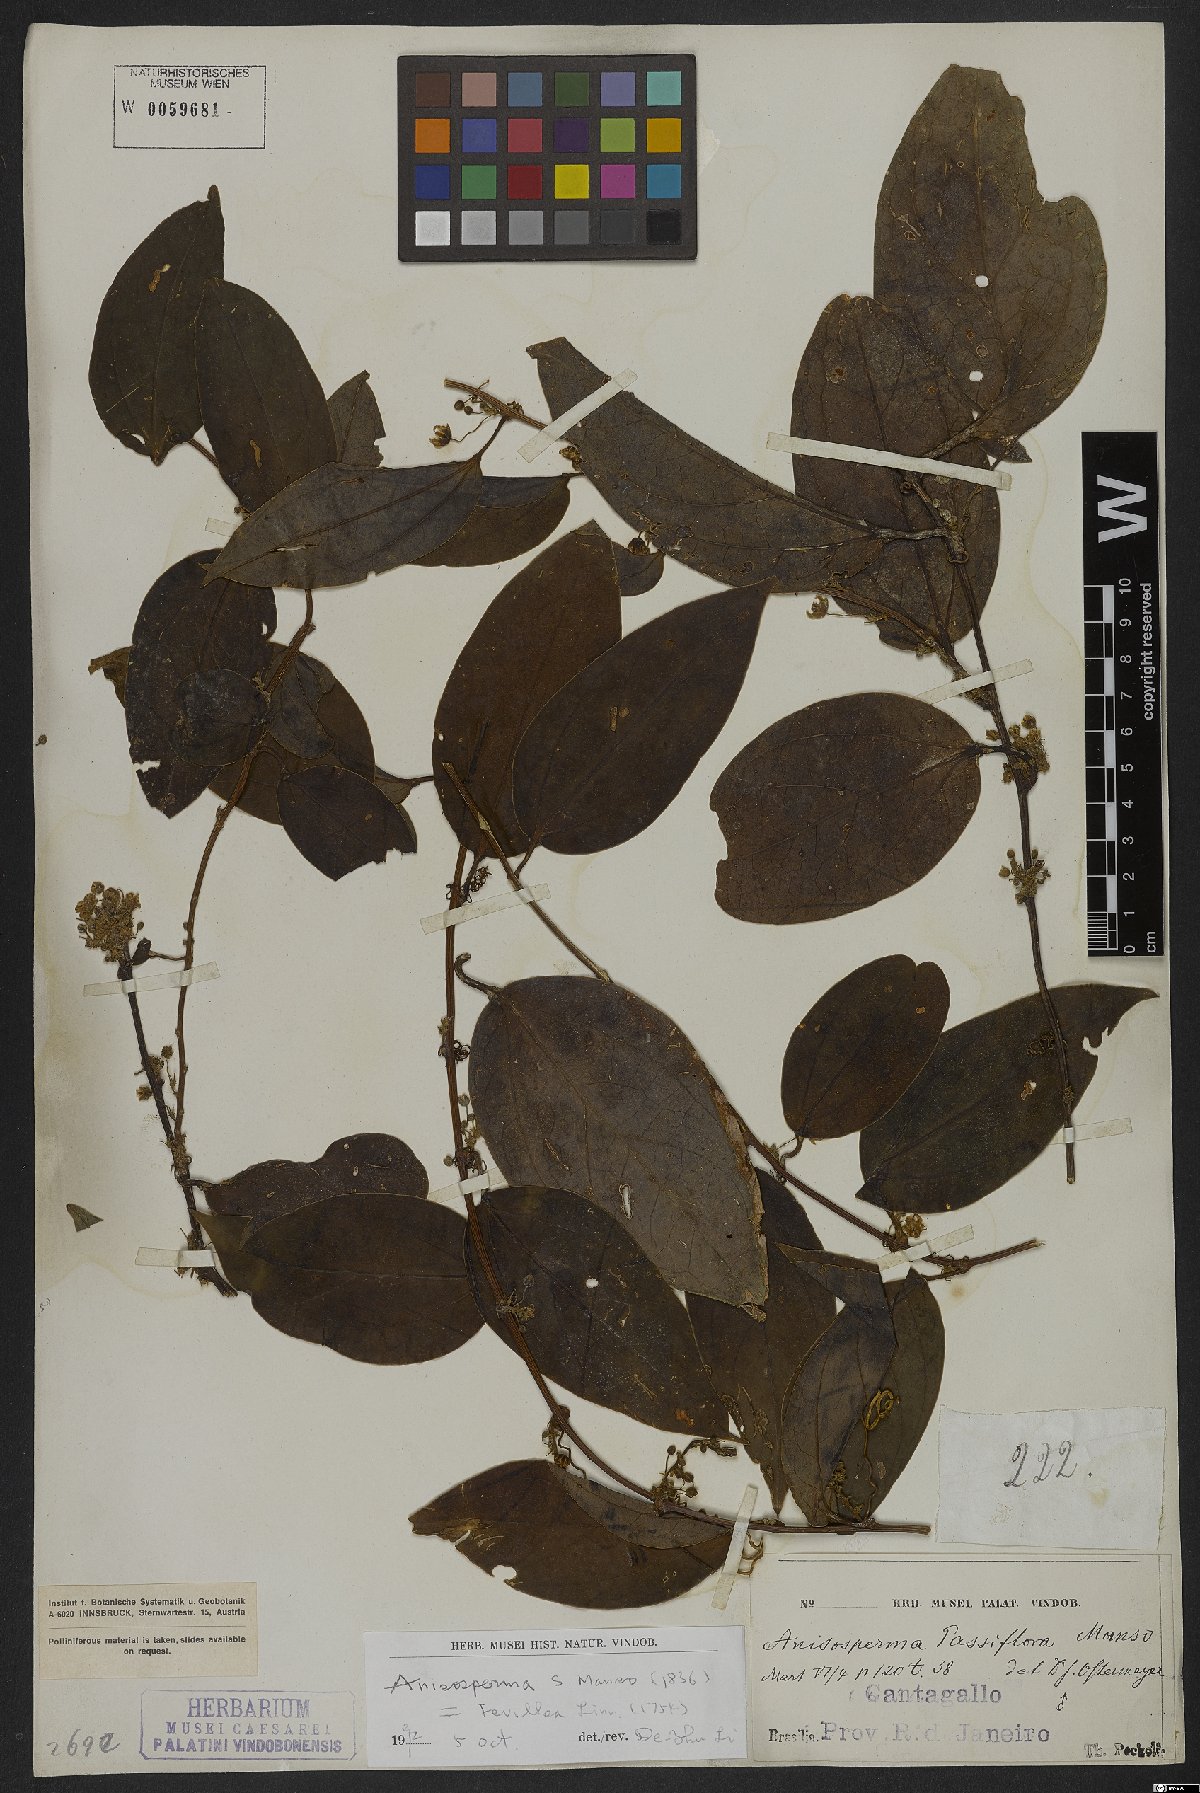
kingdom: Plantae
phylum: Tracheophyta
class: Magnoliopsida
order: Cucurbitales
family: Cucurbitaceae
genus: Anisosperma
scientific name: Anisosperma passiflora
